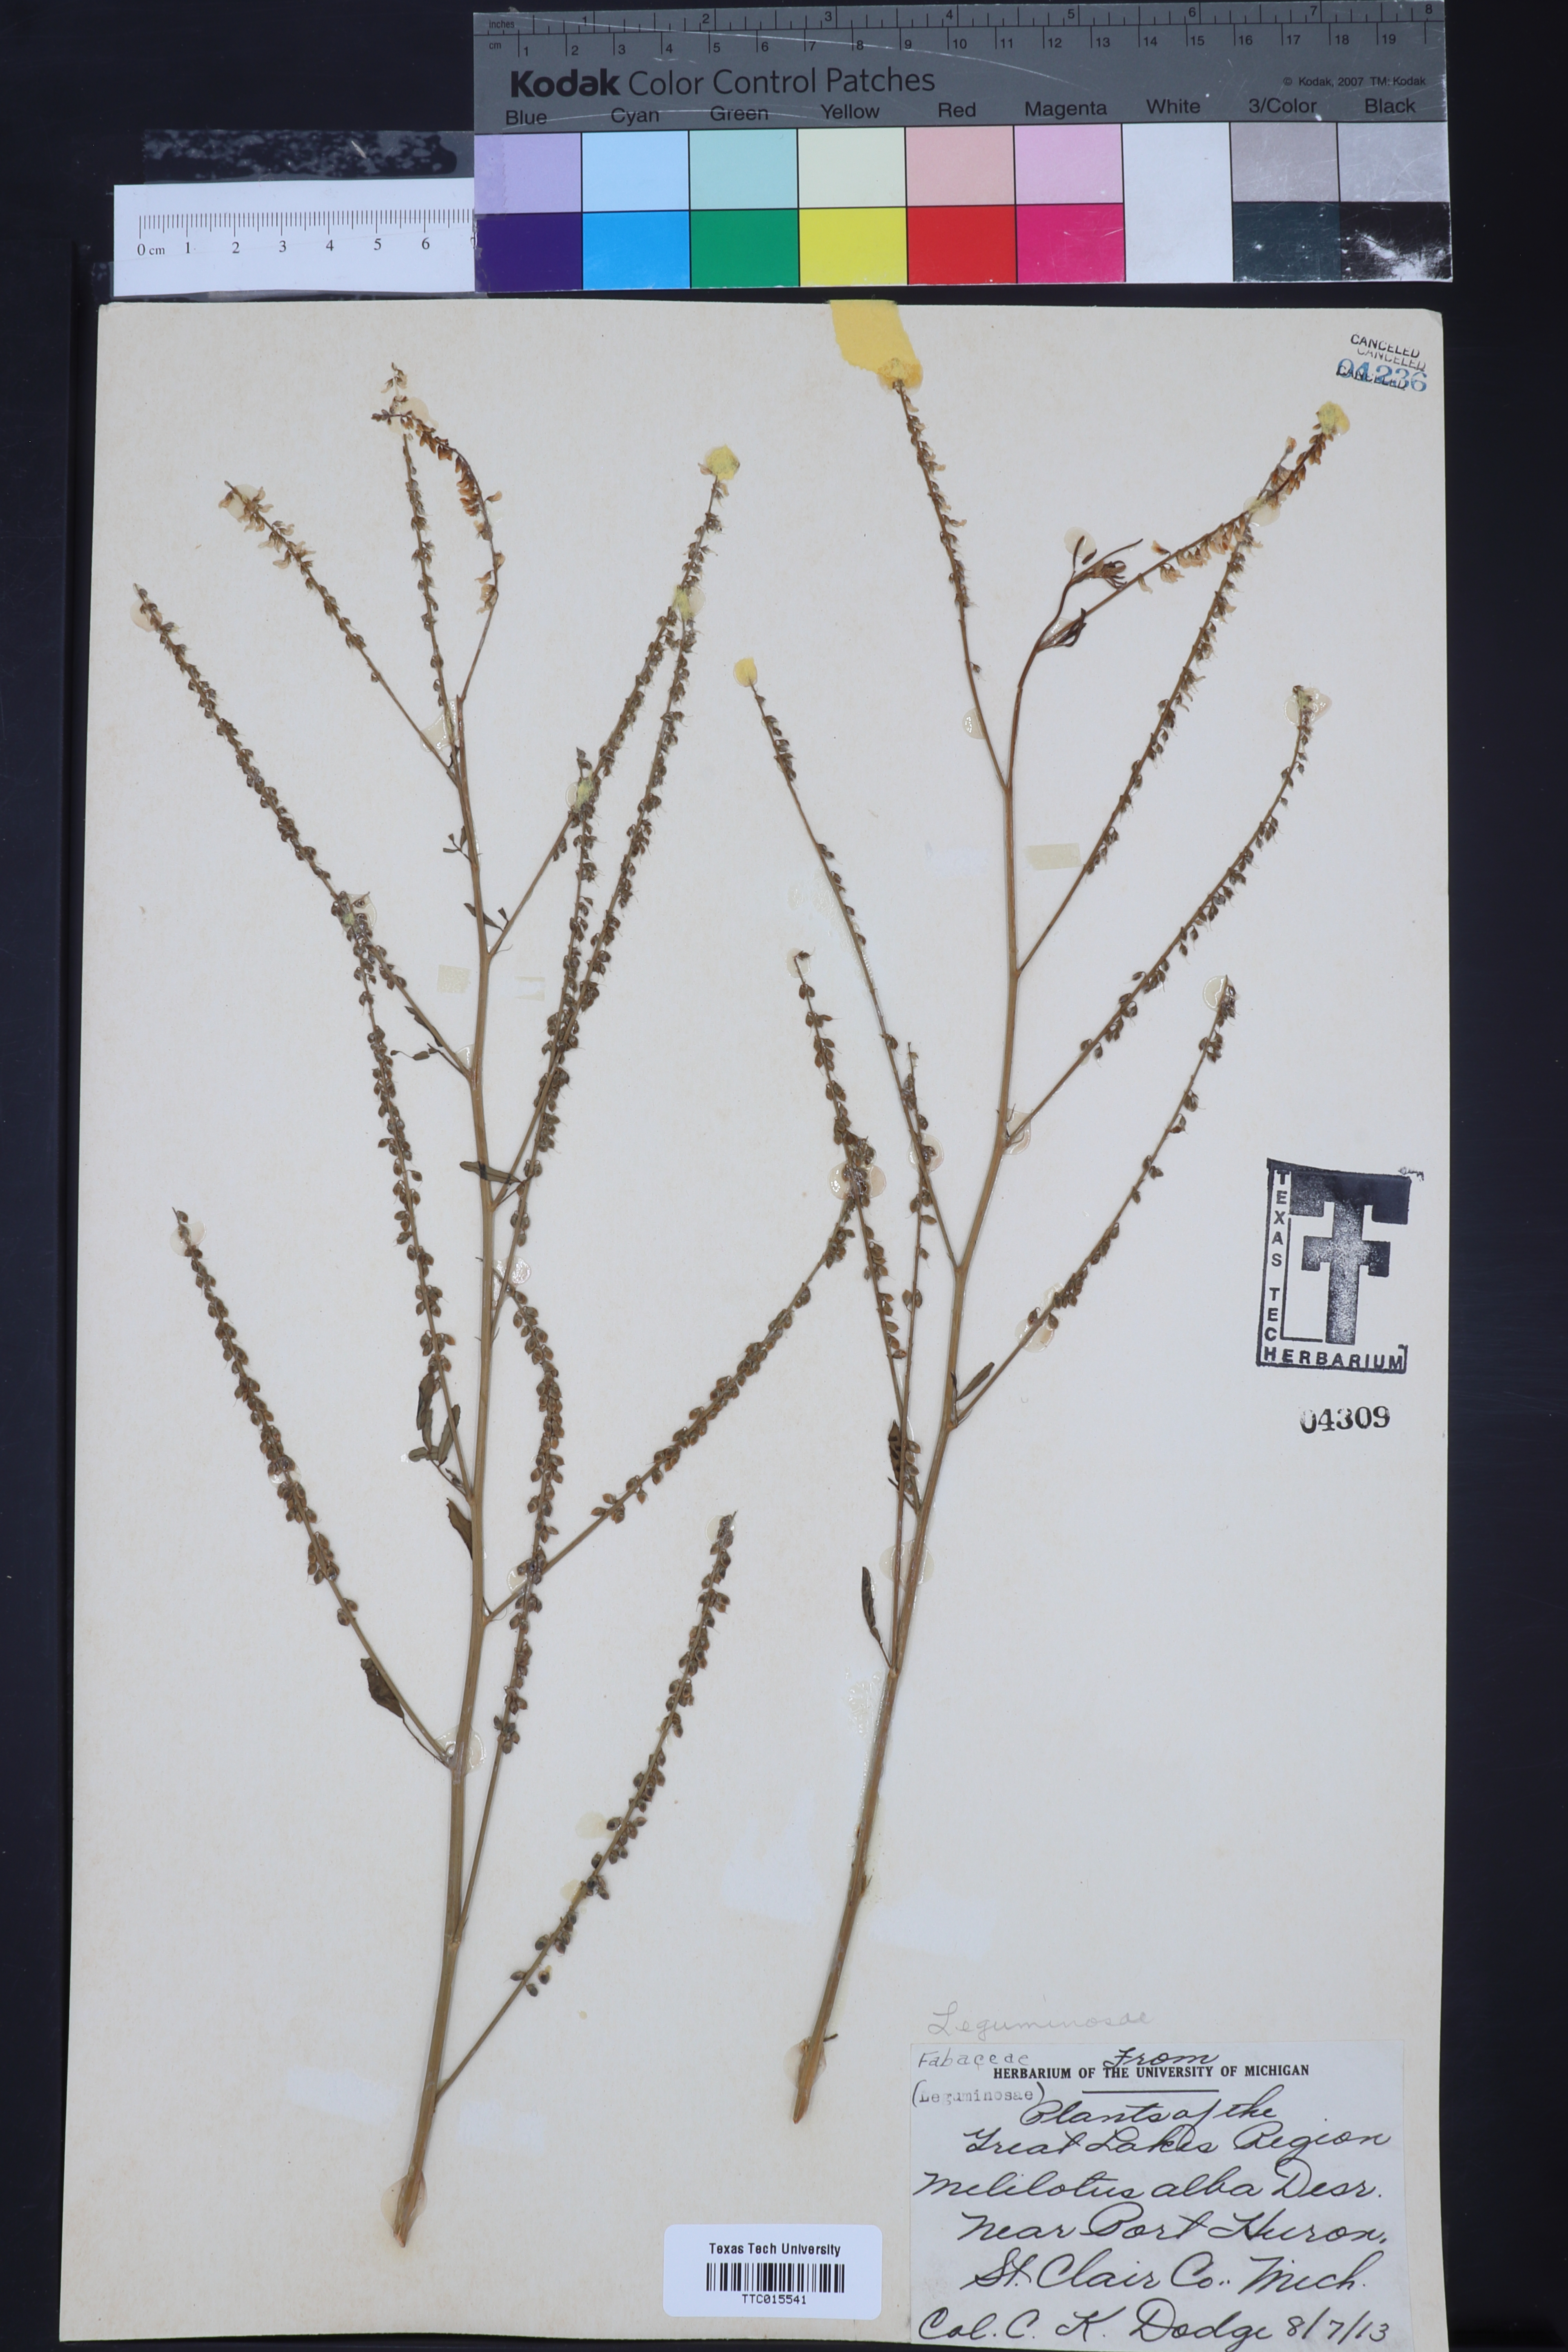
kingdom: Plantae
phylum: Tracheophyta
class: Magnoliopsida
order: Fabales
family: Fabaceae
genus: Melilotus
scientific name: Melilotus albus
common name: White melilot
